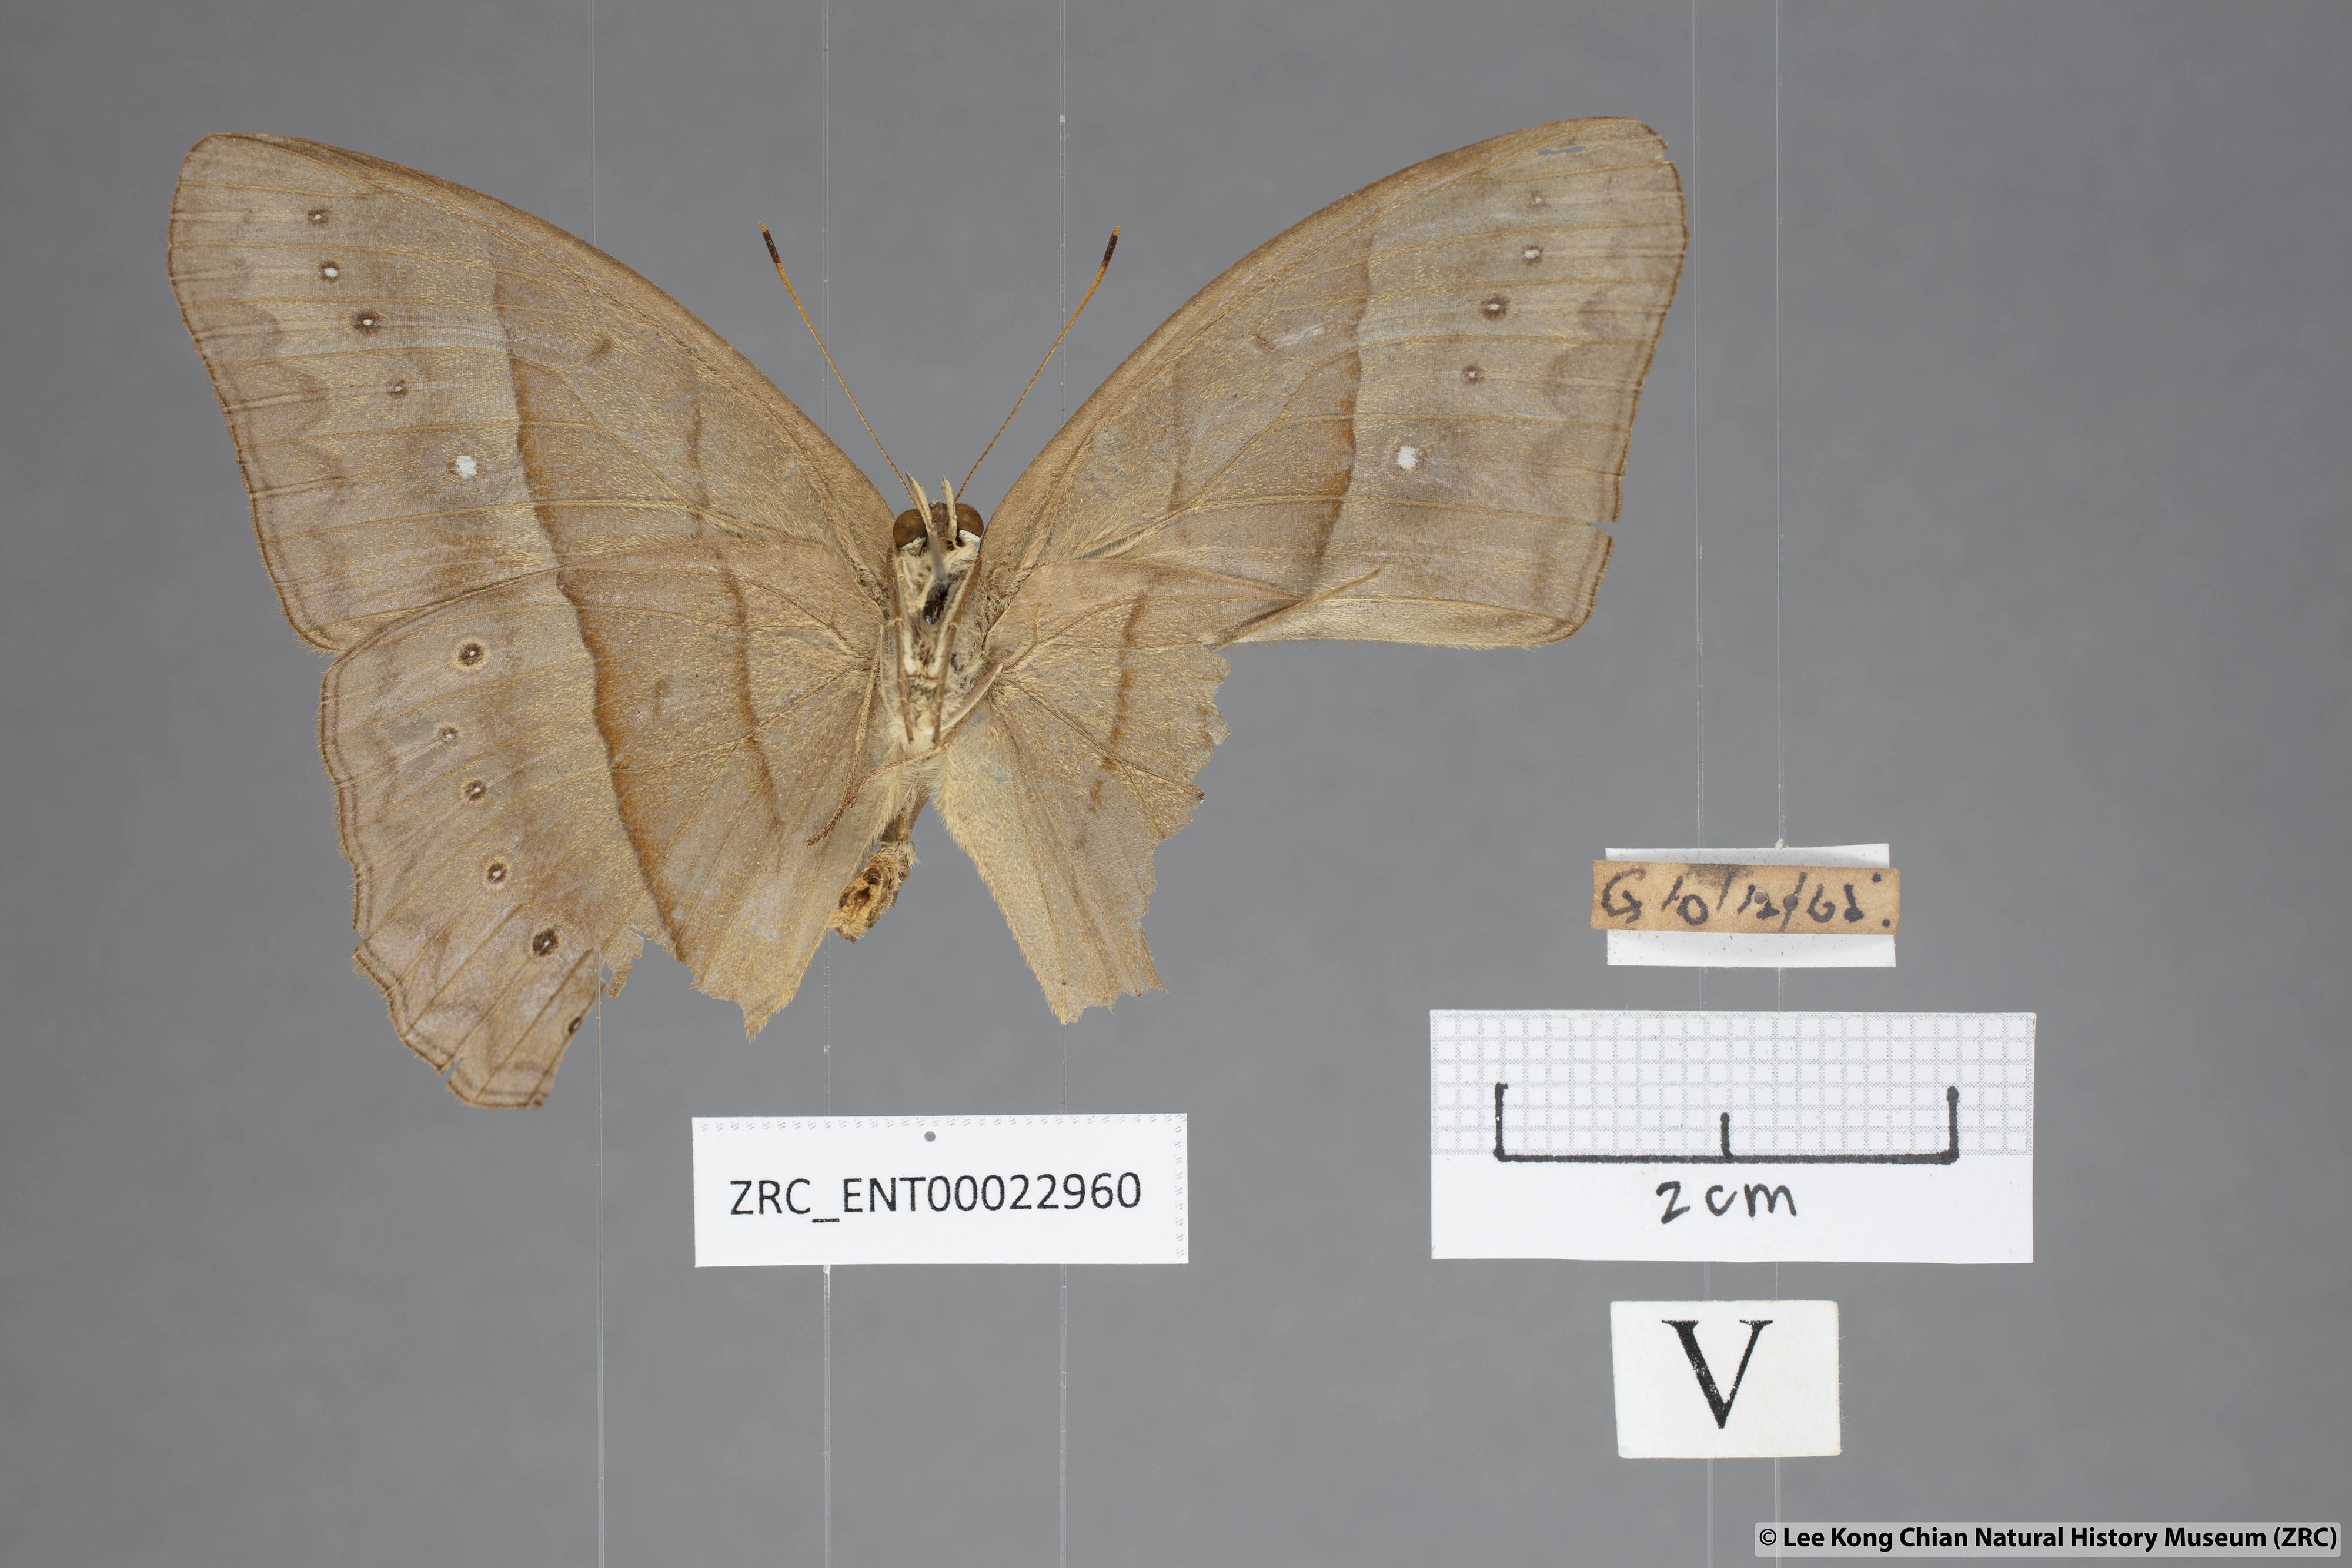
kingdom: Animalia
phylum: Arthropoda
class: Insecta
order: Lepidoptera
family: Nymphalidae
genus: Mycalesis
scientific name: Mycalesis mnasicles
